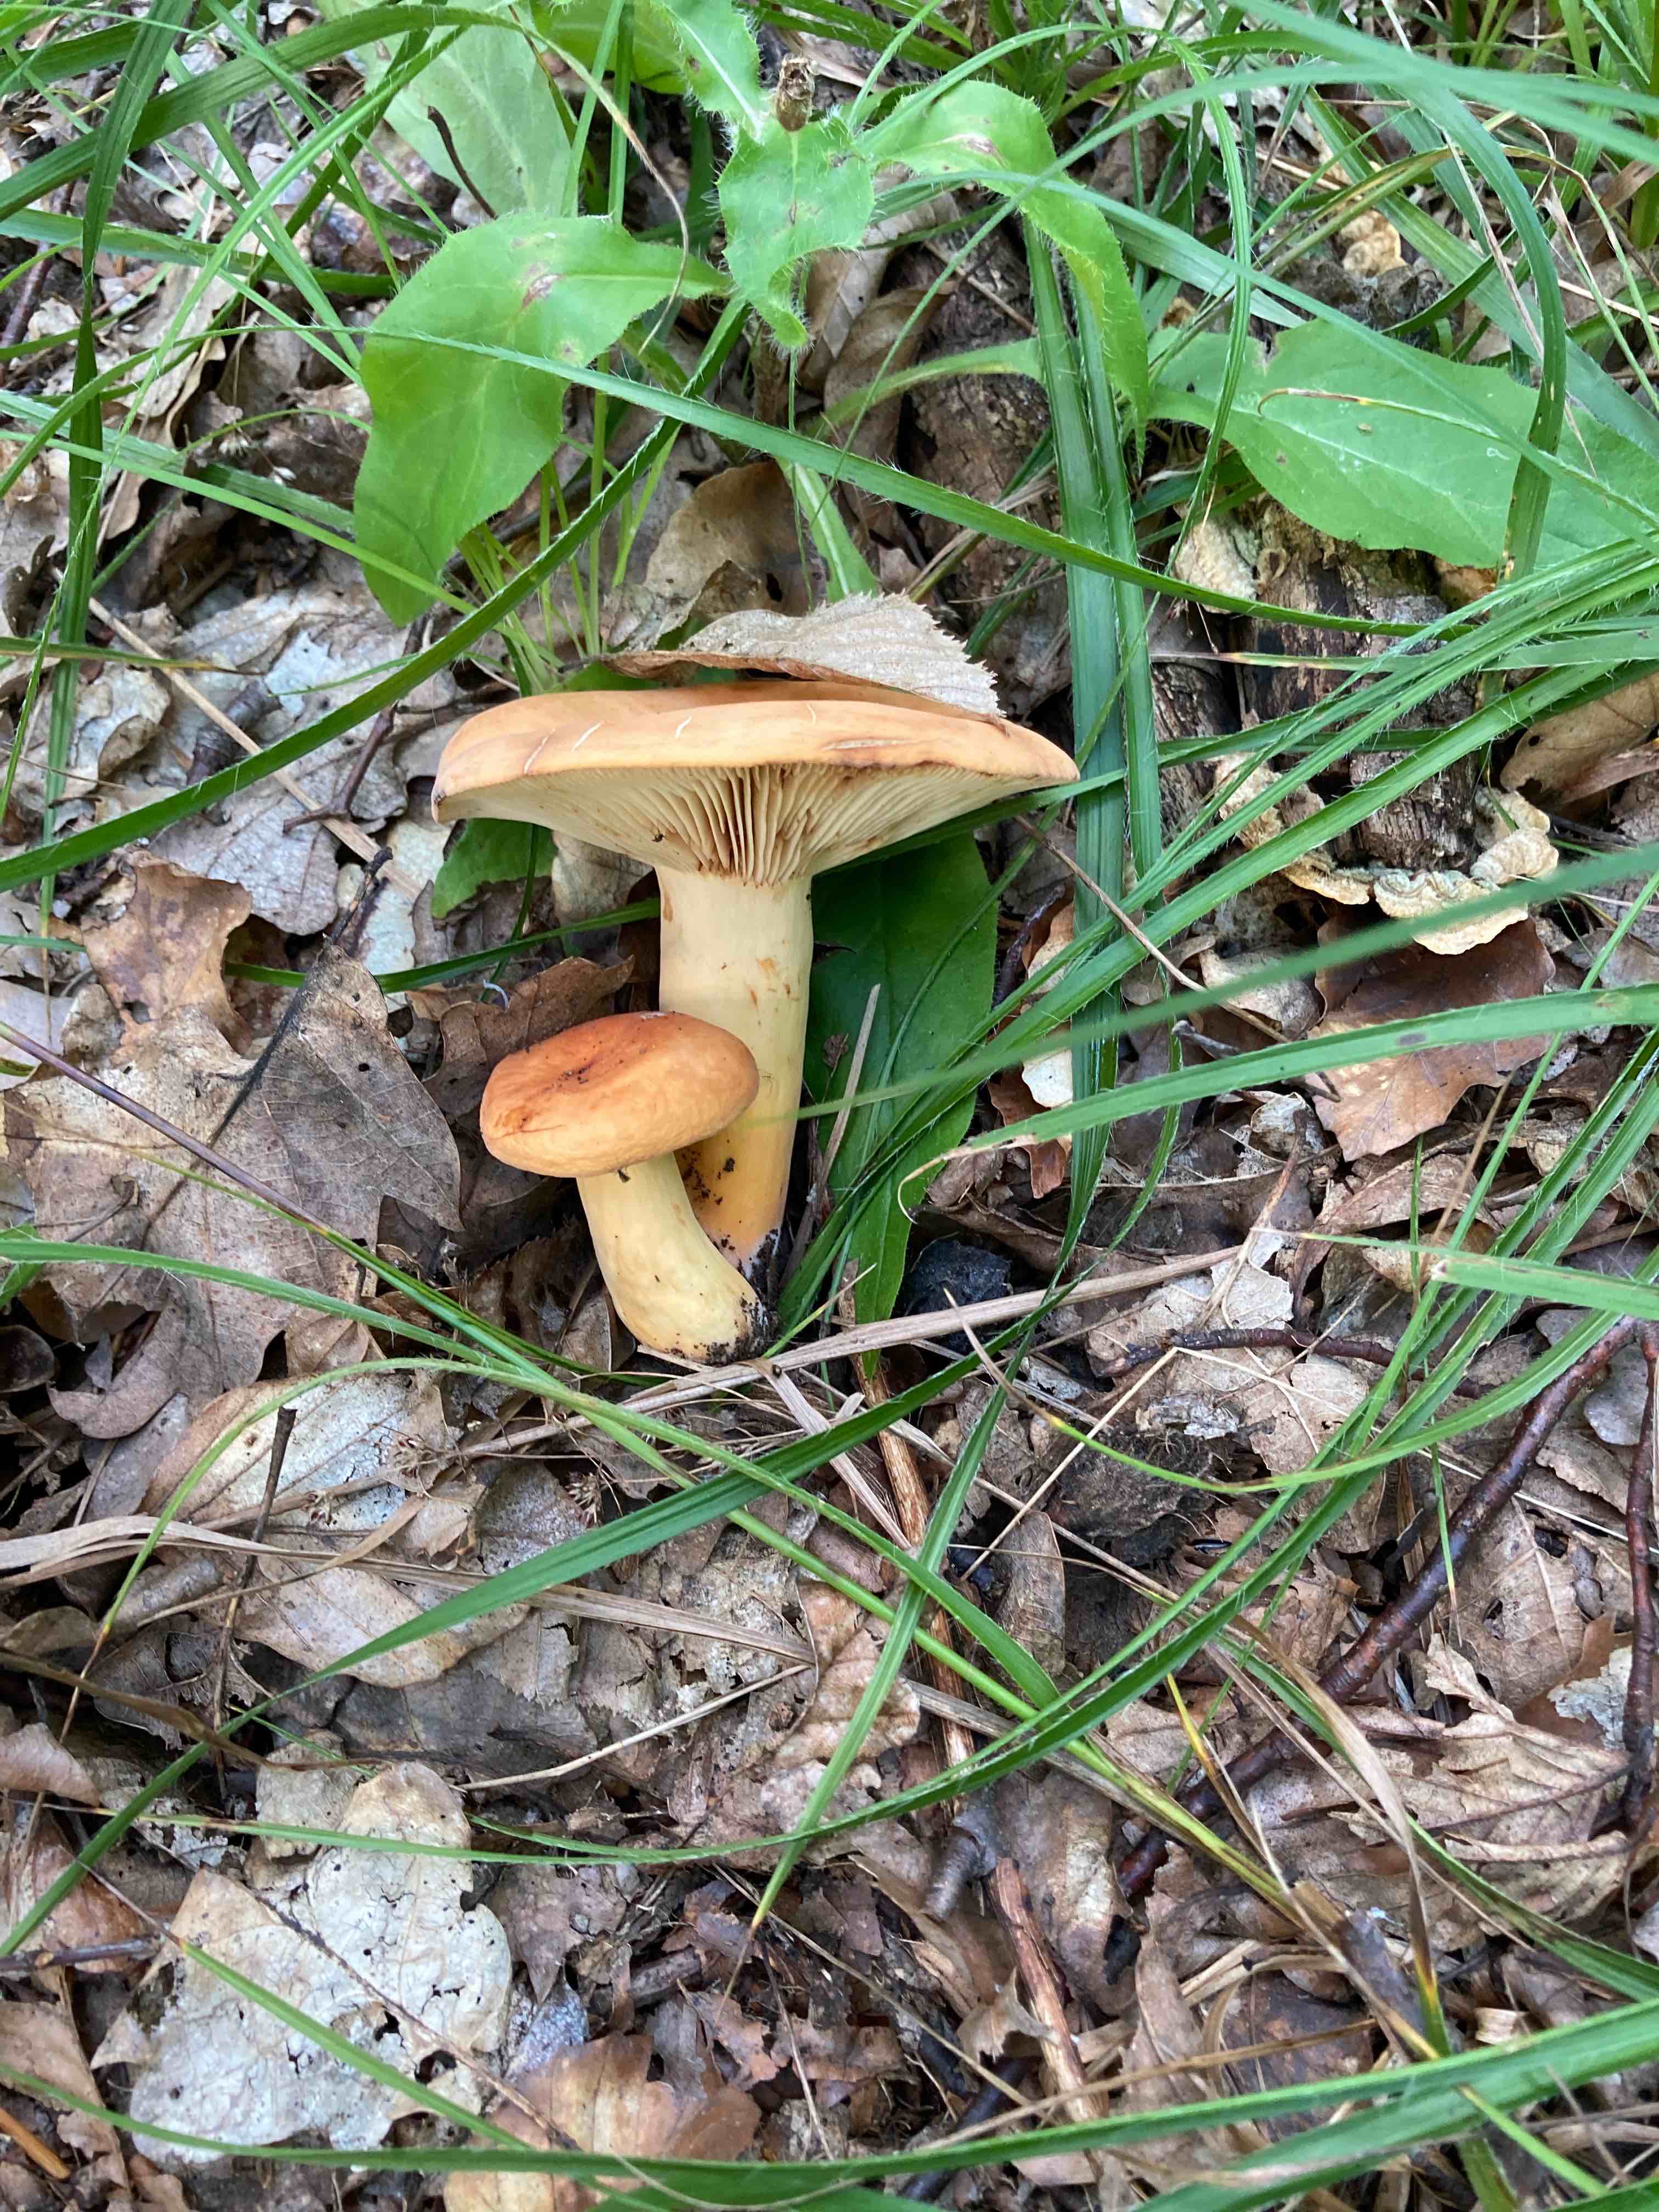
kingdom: Fungi
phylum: Basidiomycota
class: Agaricomycetes
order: Russulales
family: Russulaceae
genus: Lactifluus
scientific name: Lactifluus volemus
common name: spiselig mælkehat
